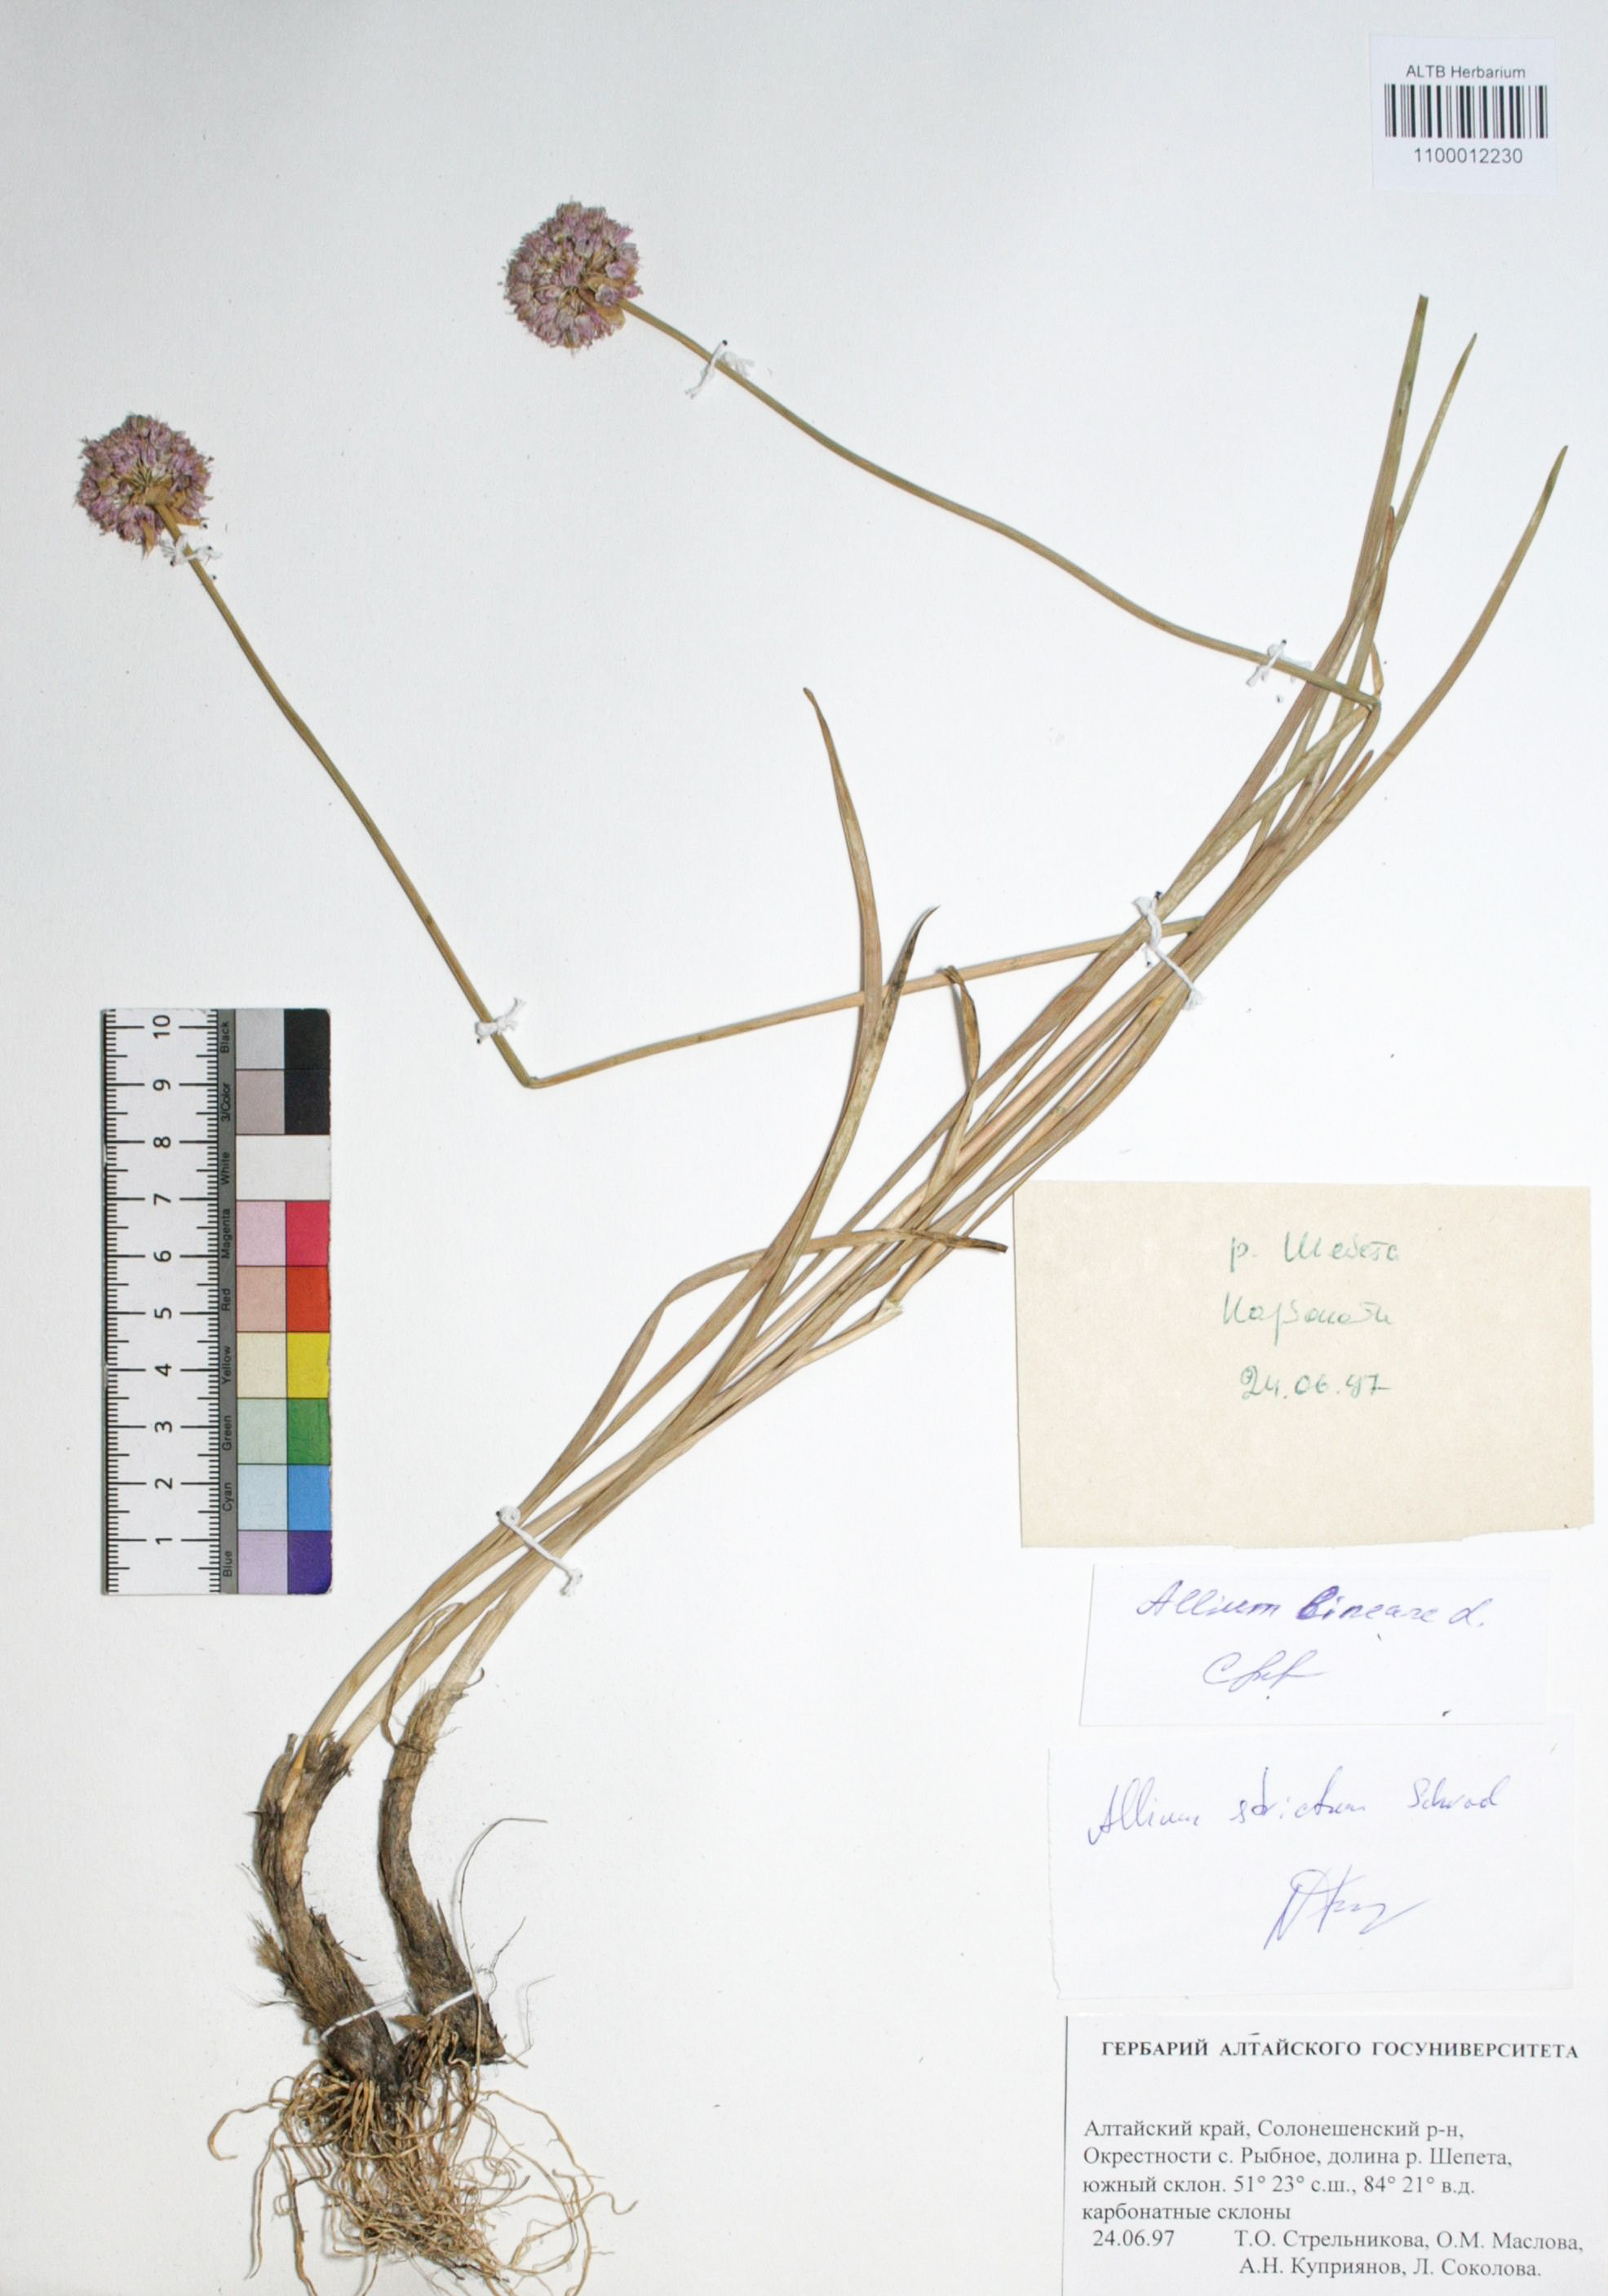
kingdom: Plantae
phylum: Tracheophyta
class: Liliopsida
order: Asparagales
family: Amaryllidaceae
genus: Allium
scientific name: Allium strictum
